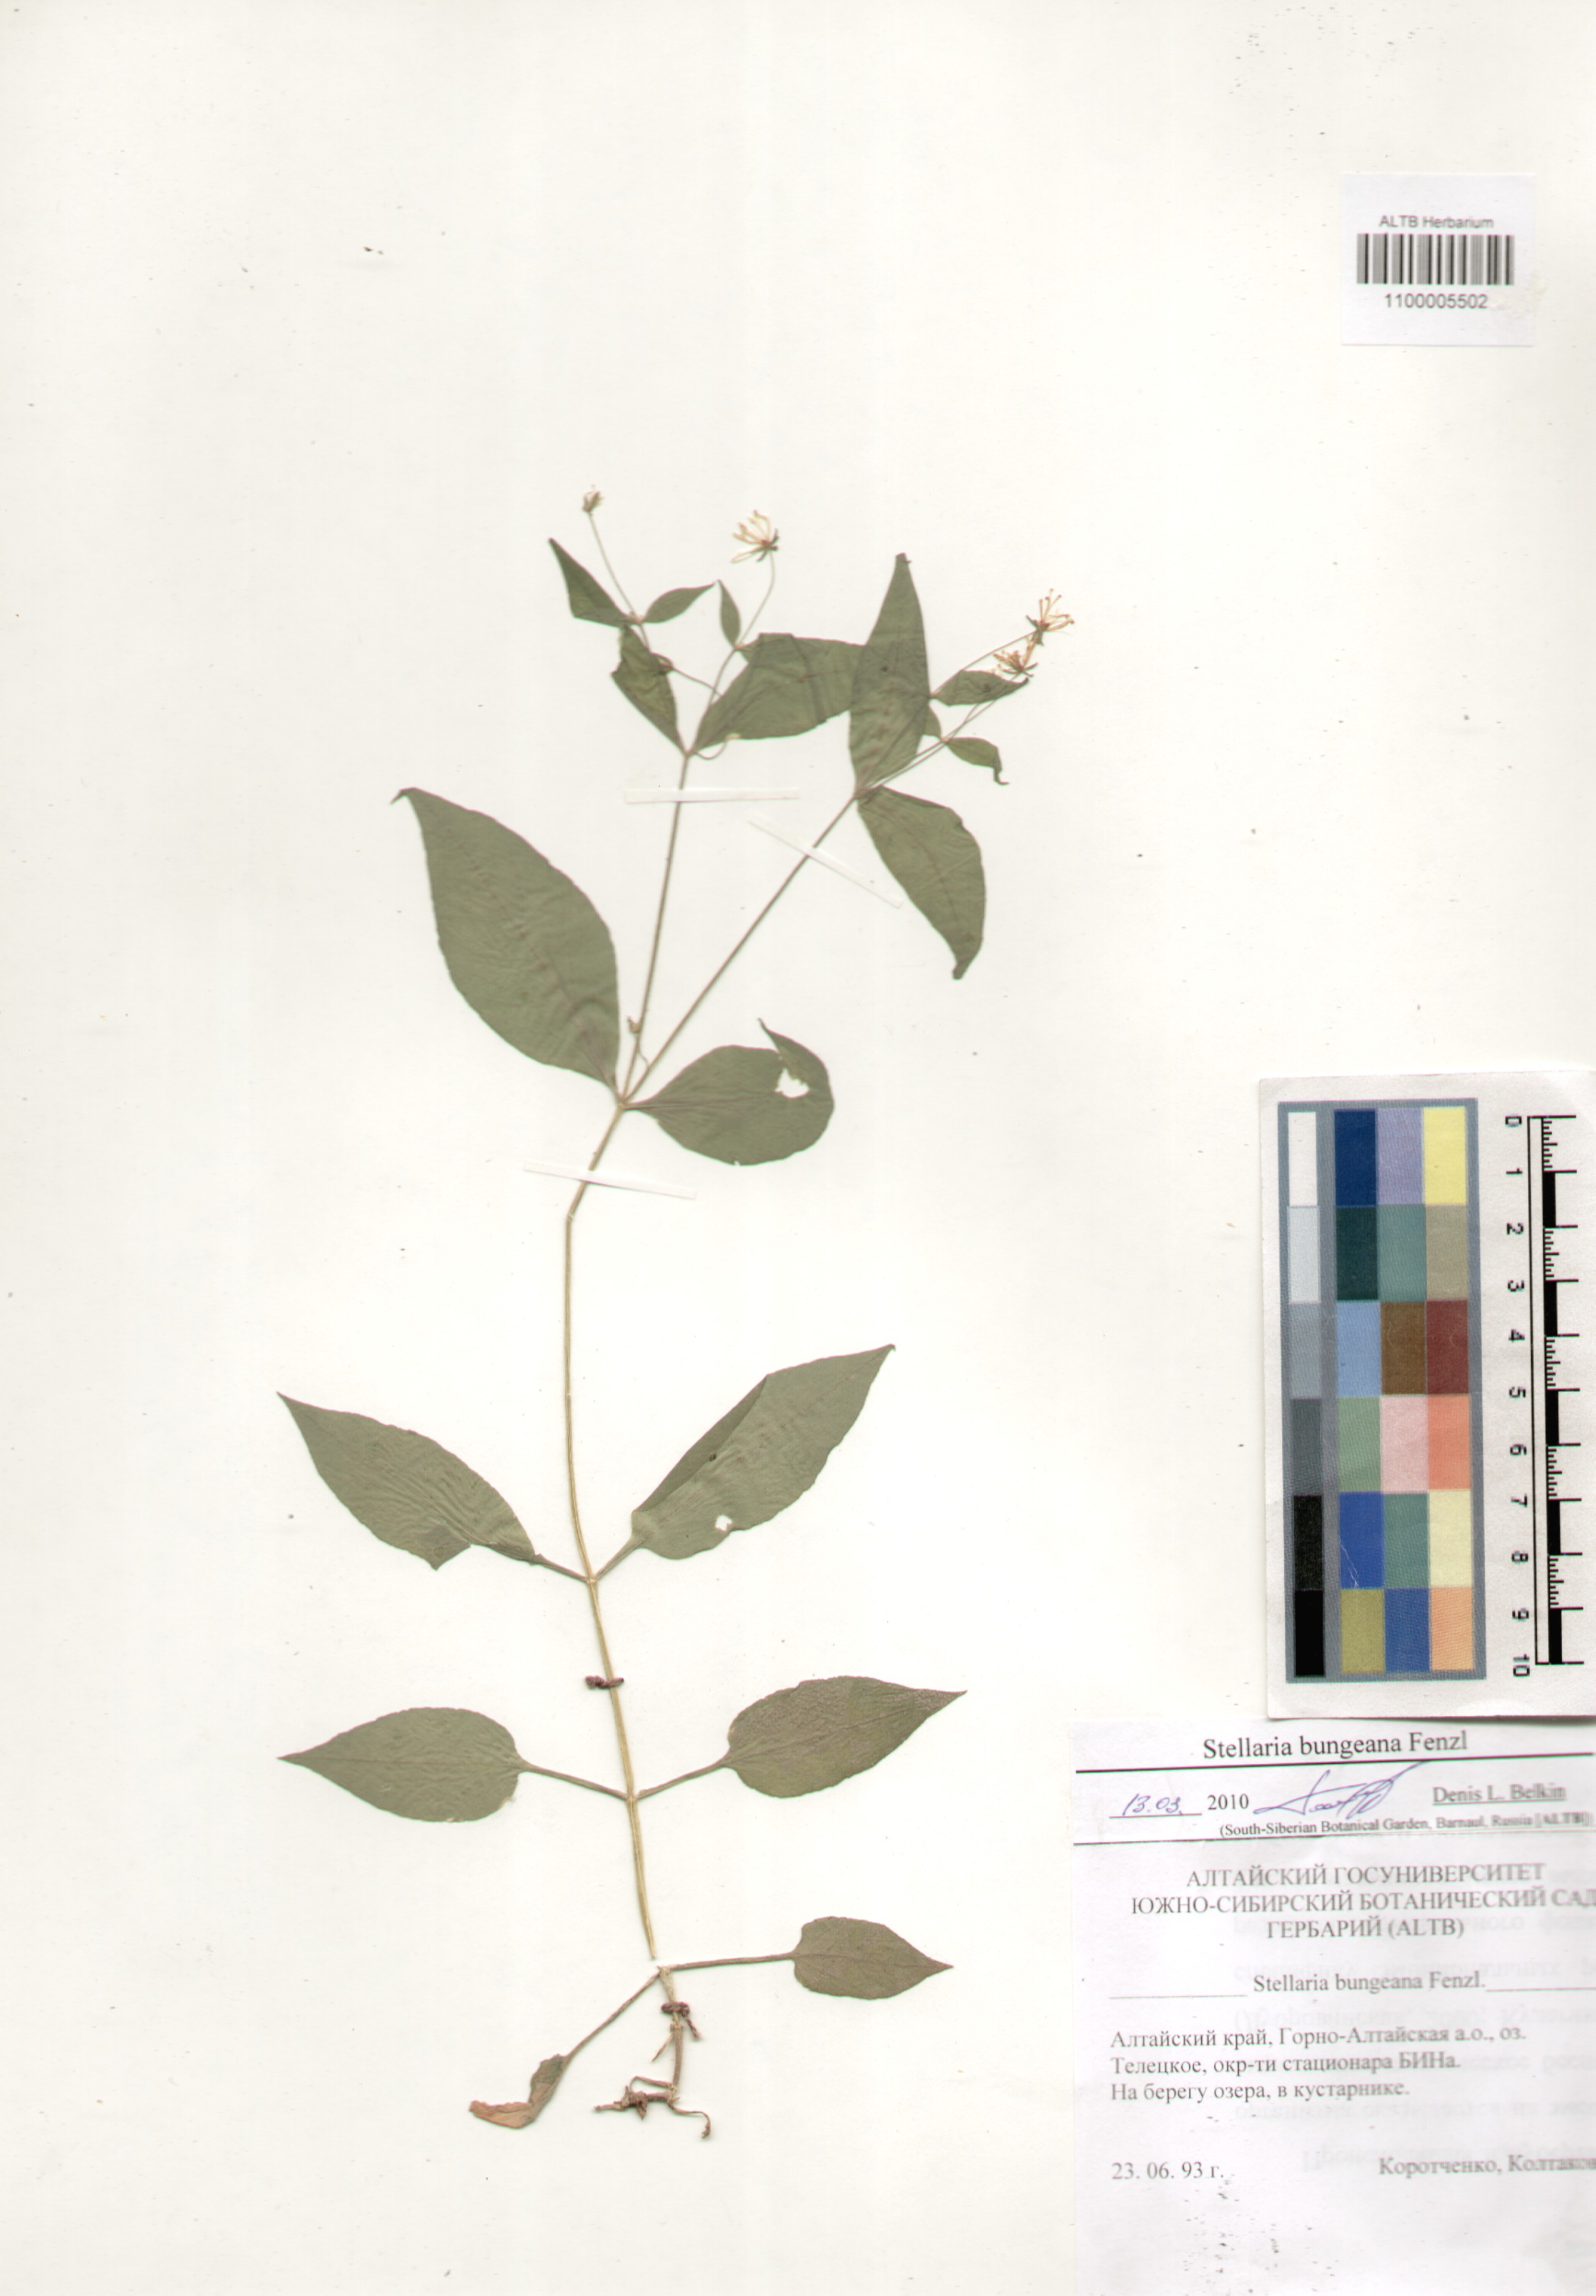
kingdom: Plantae
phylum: Tracheophyta
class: Magnoliopsida
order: Caryophyllales
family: Caryophyllaceae
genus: Stellaria
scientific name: Stellaria bungeana
